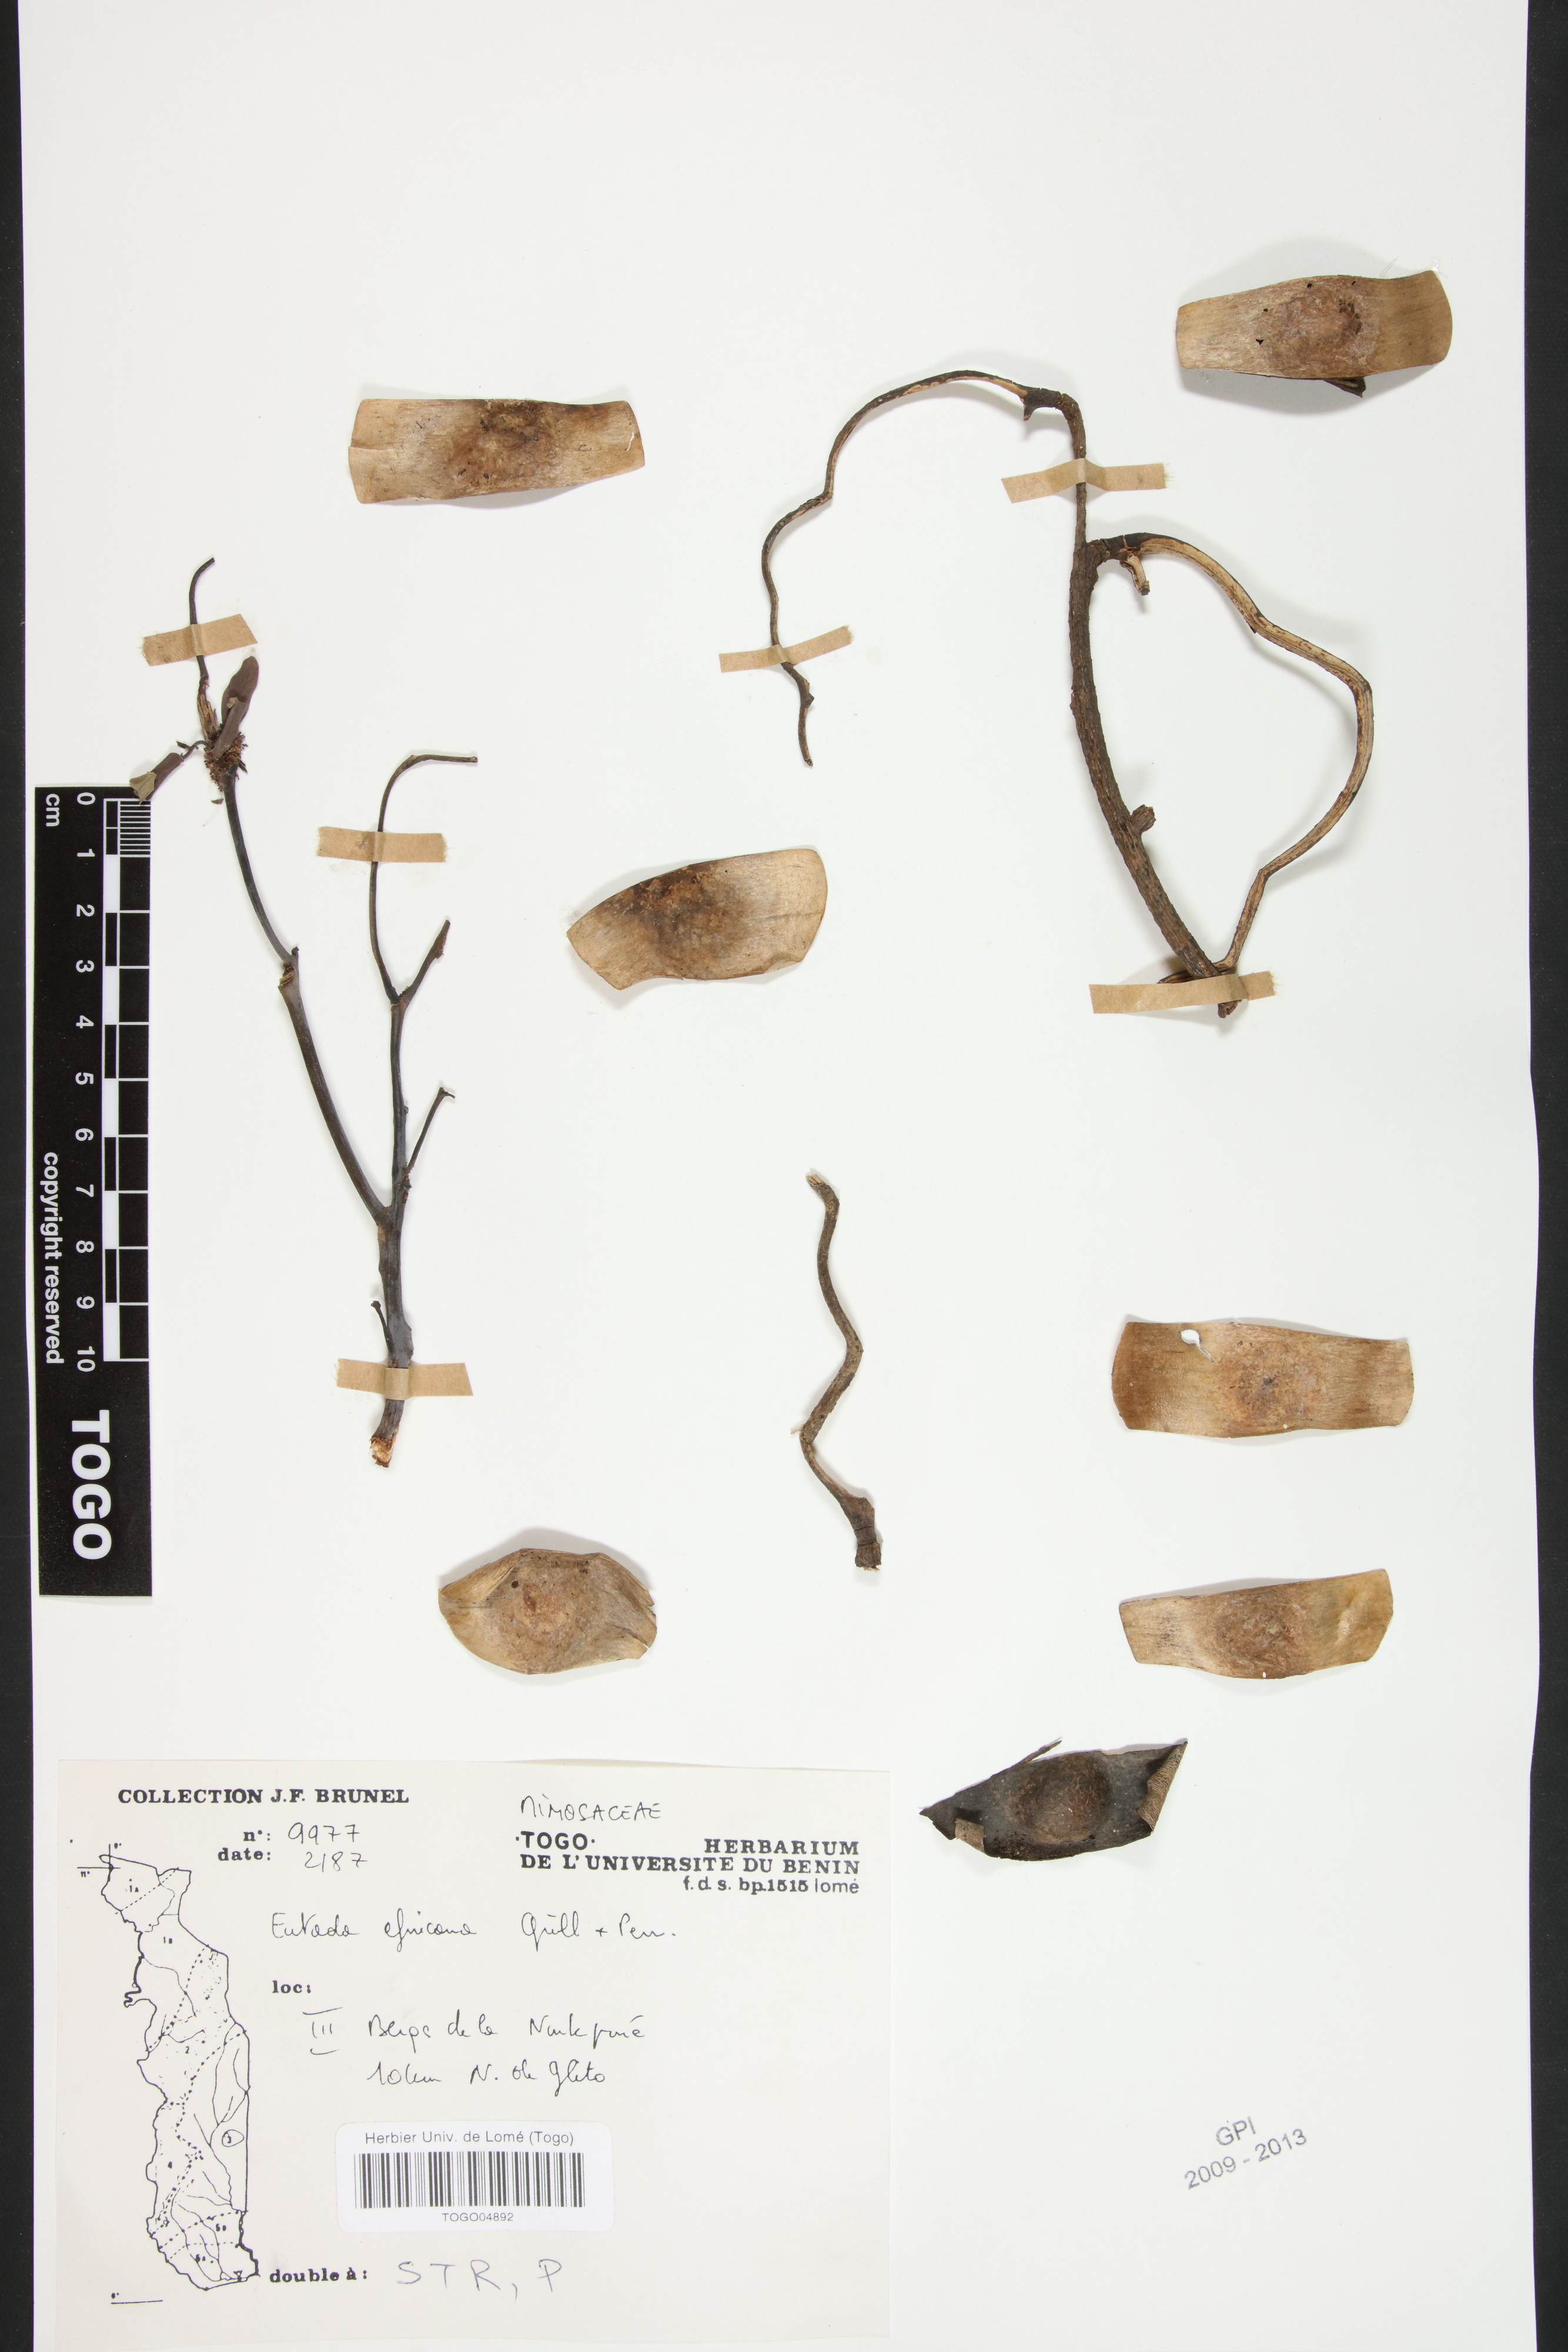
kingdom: Plantae
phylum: Tracheophyta
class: Magnoliopsida
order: Fabales
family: Fabaceae
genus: Entada
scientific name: Entada africana
